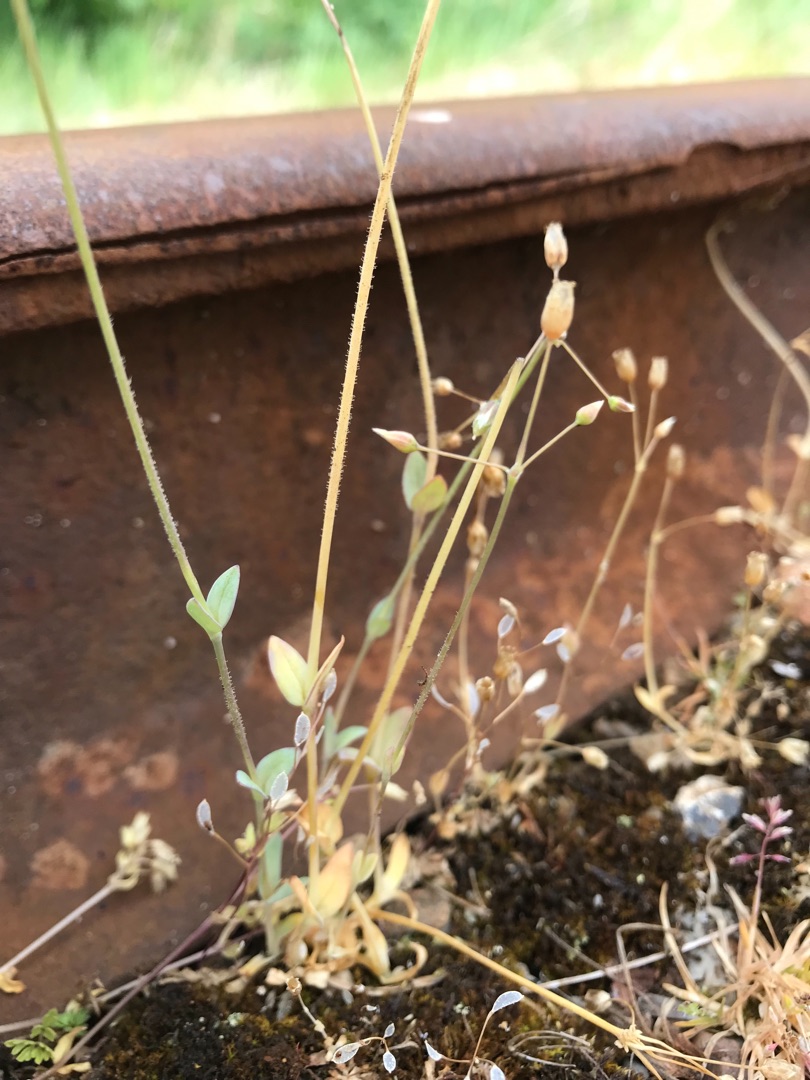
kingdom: Plantae
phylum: Tracheophyta
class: Magnoliopsida
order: Caryophyllales
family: Caryophyllaceae
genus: Holosteum
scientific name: Holosteum umbellatum
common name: Skærmarve
